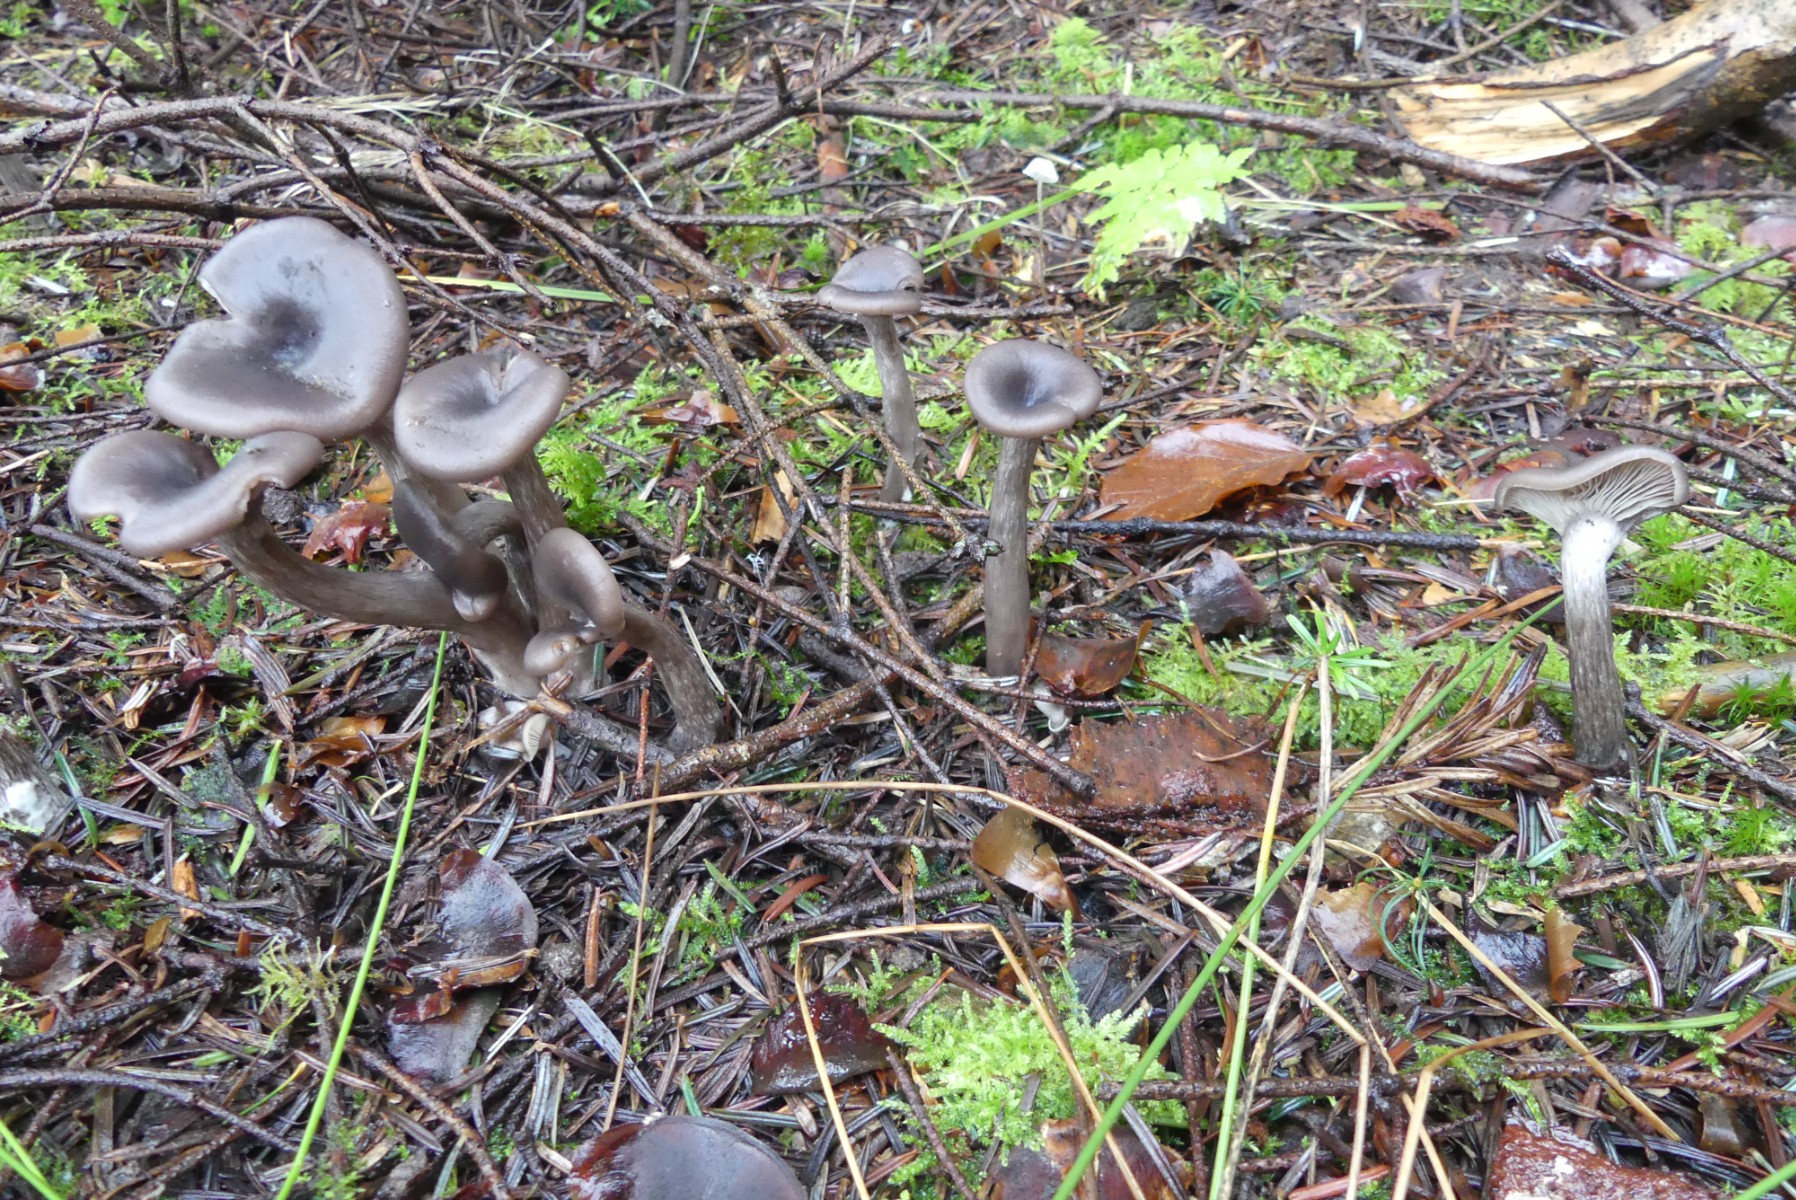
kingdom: Fungi
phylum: Basidiomycota
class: Agaricomycetes
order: Agaricales
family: Pseudoclitocybaceae
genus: Pseudoclitocybe
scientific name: Pseudoclitocybe cyathiformis
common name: almindelig bægertragthat
